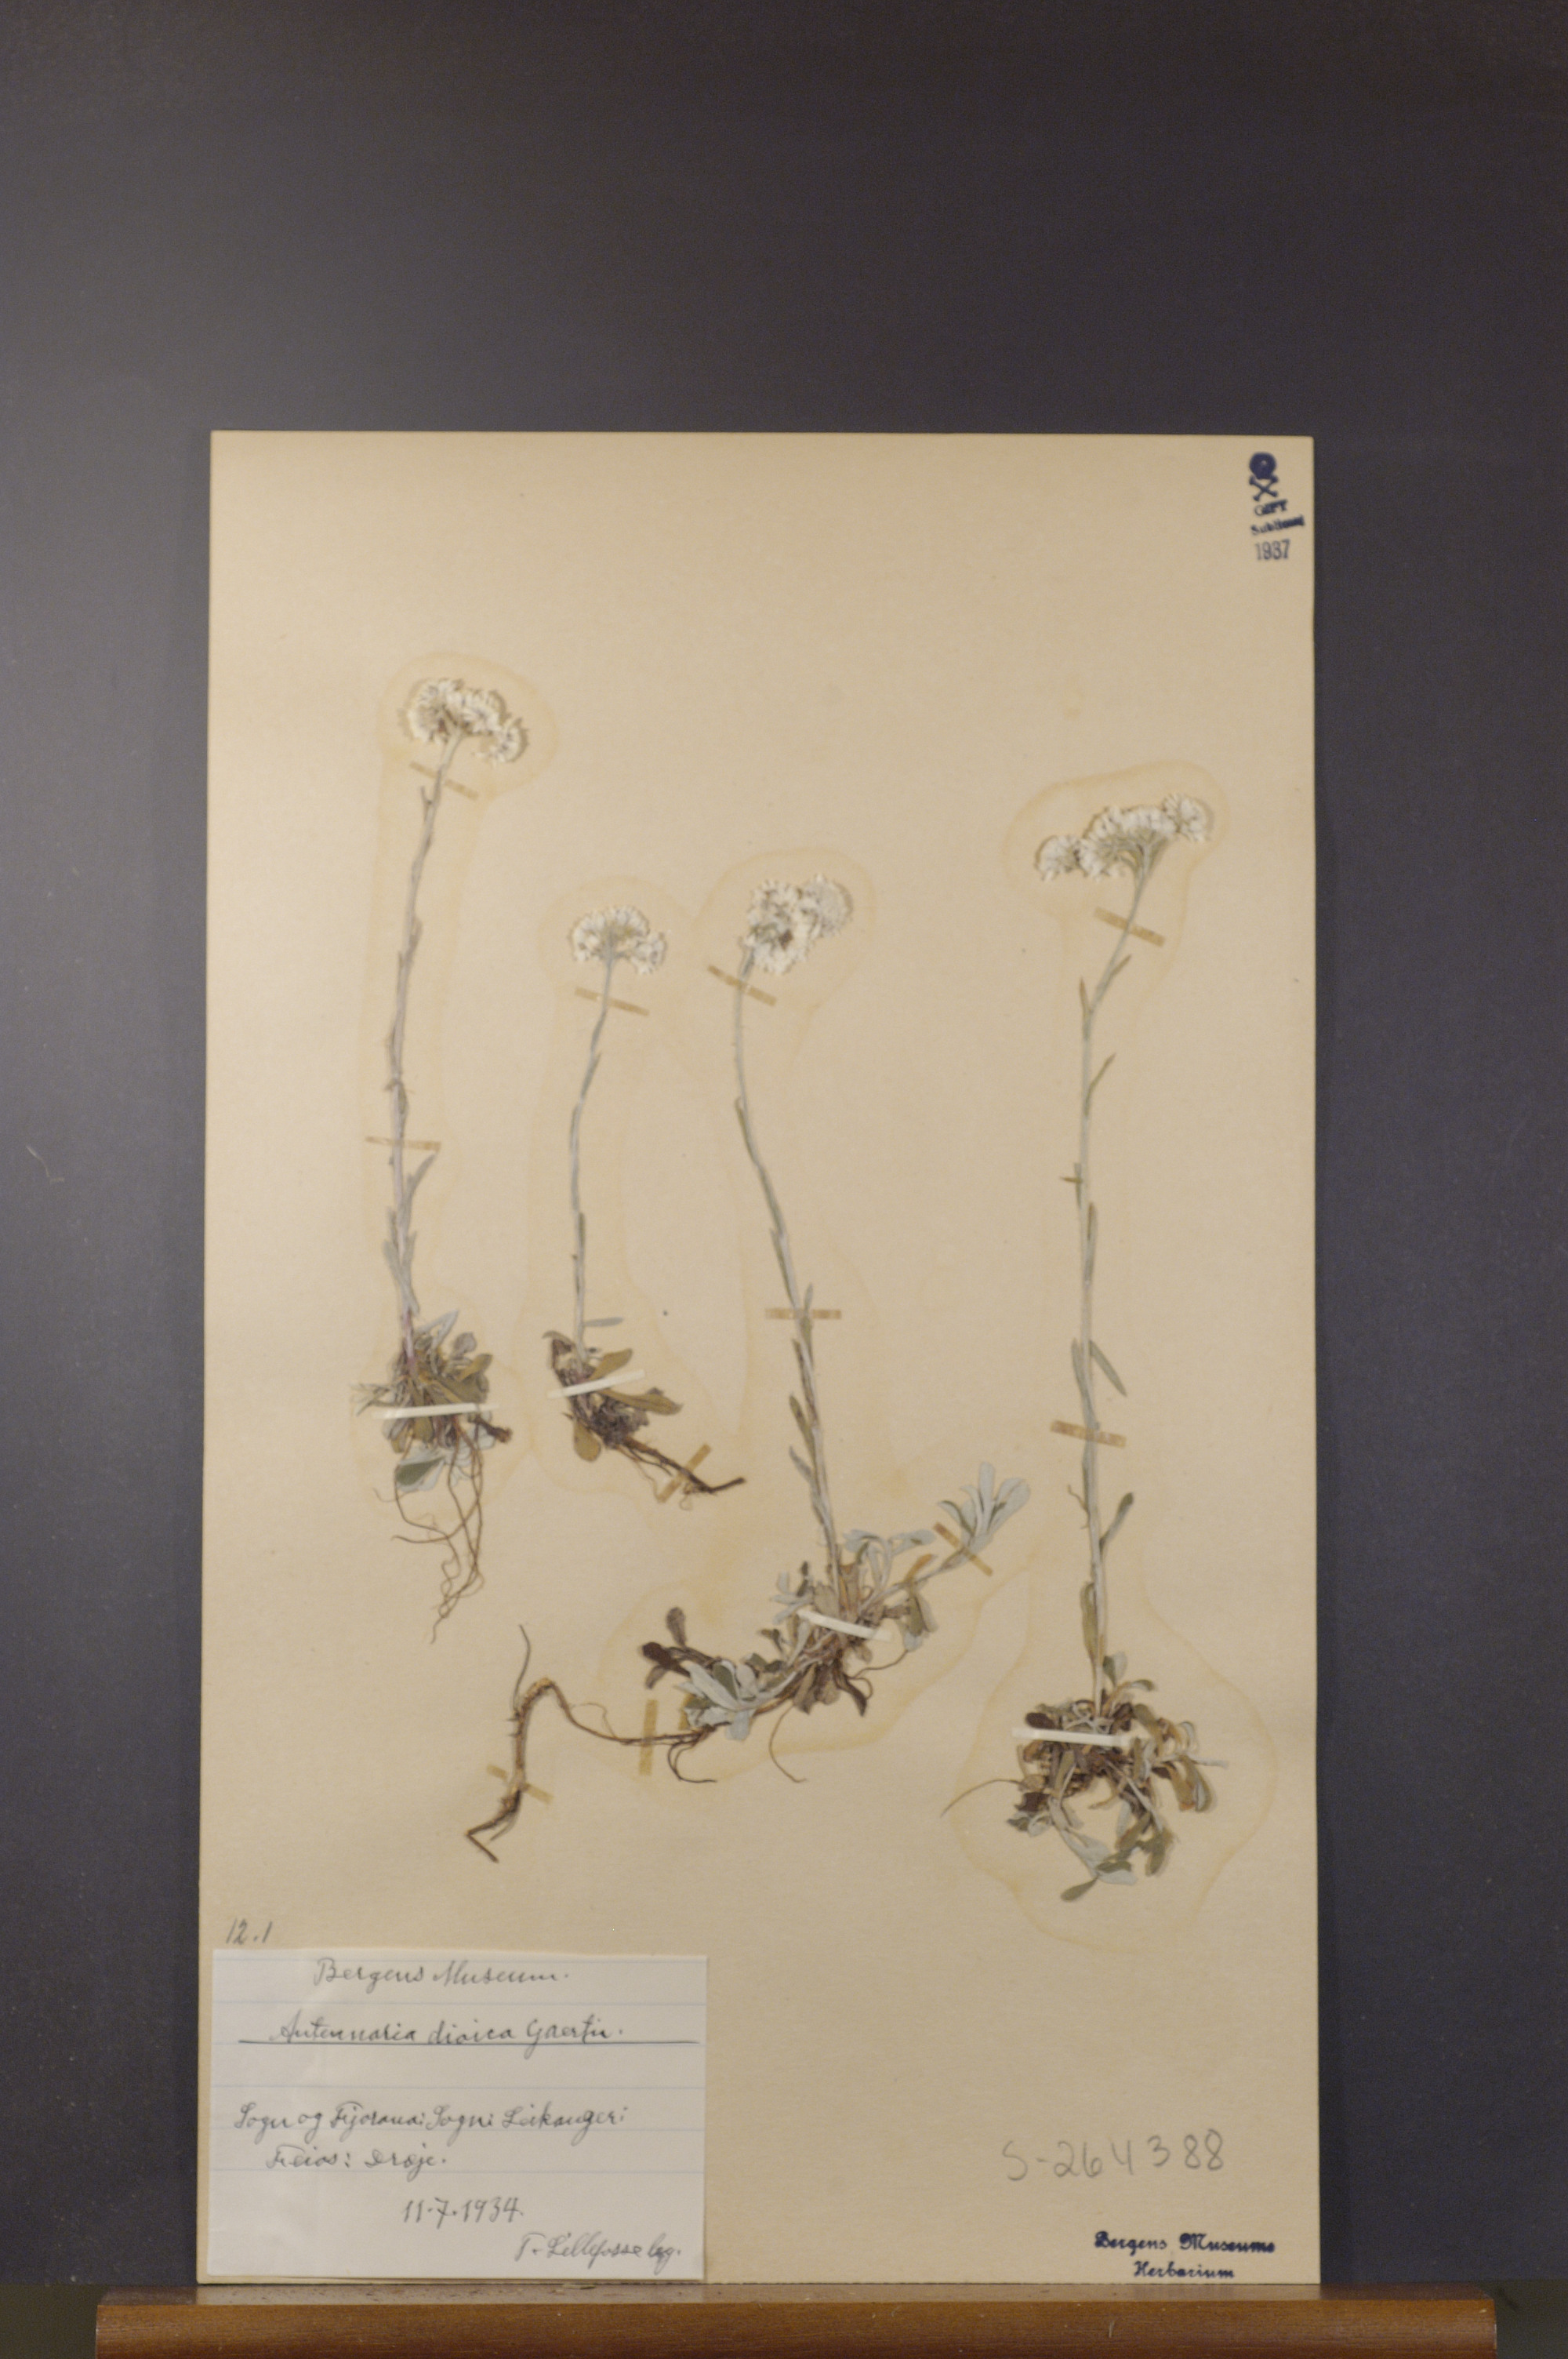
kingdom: Plantae
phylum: Tracheophyta
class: Magnoliopsida
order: Asterales
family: Asteraceae
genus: Antennaria
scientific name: Antennaria dioica
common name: Mountain everlasting
